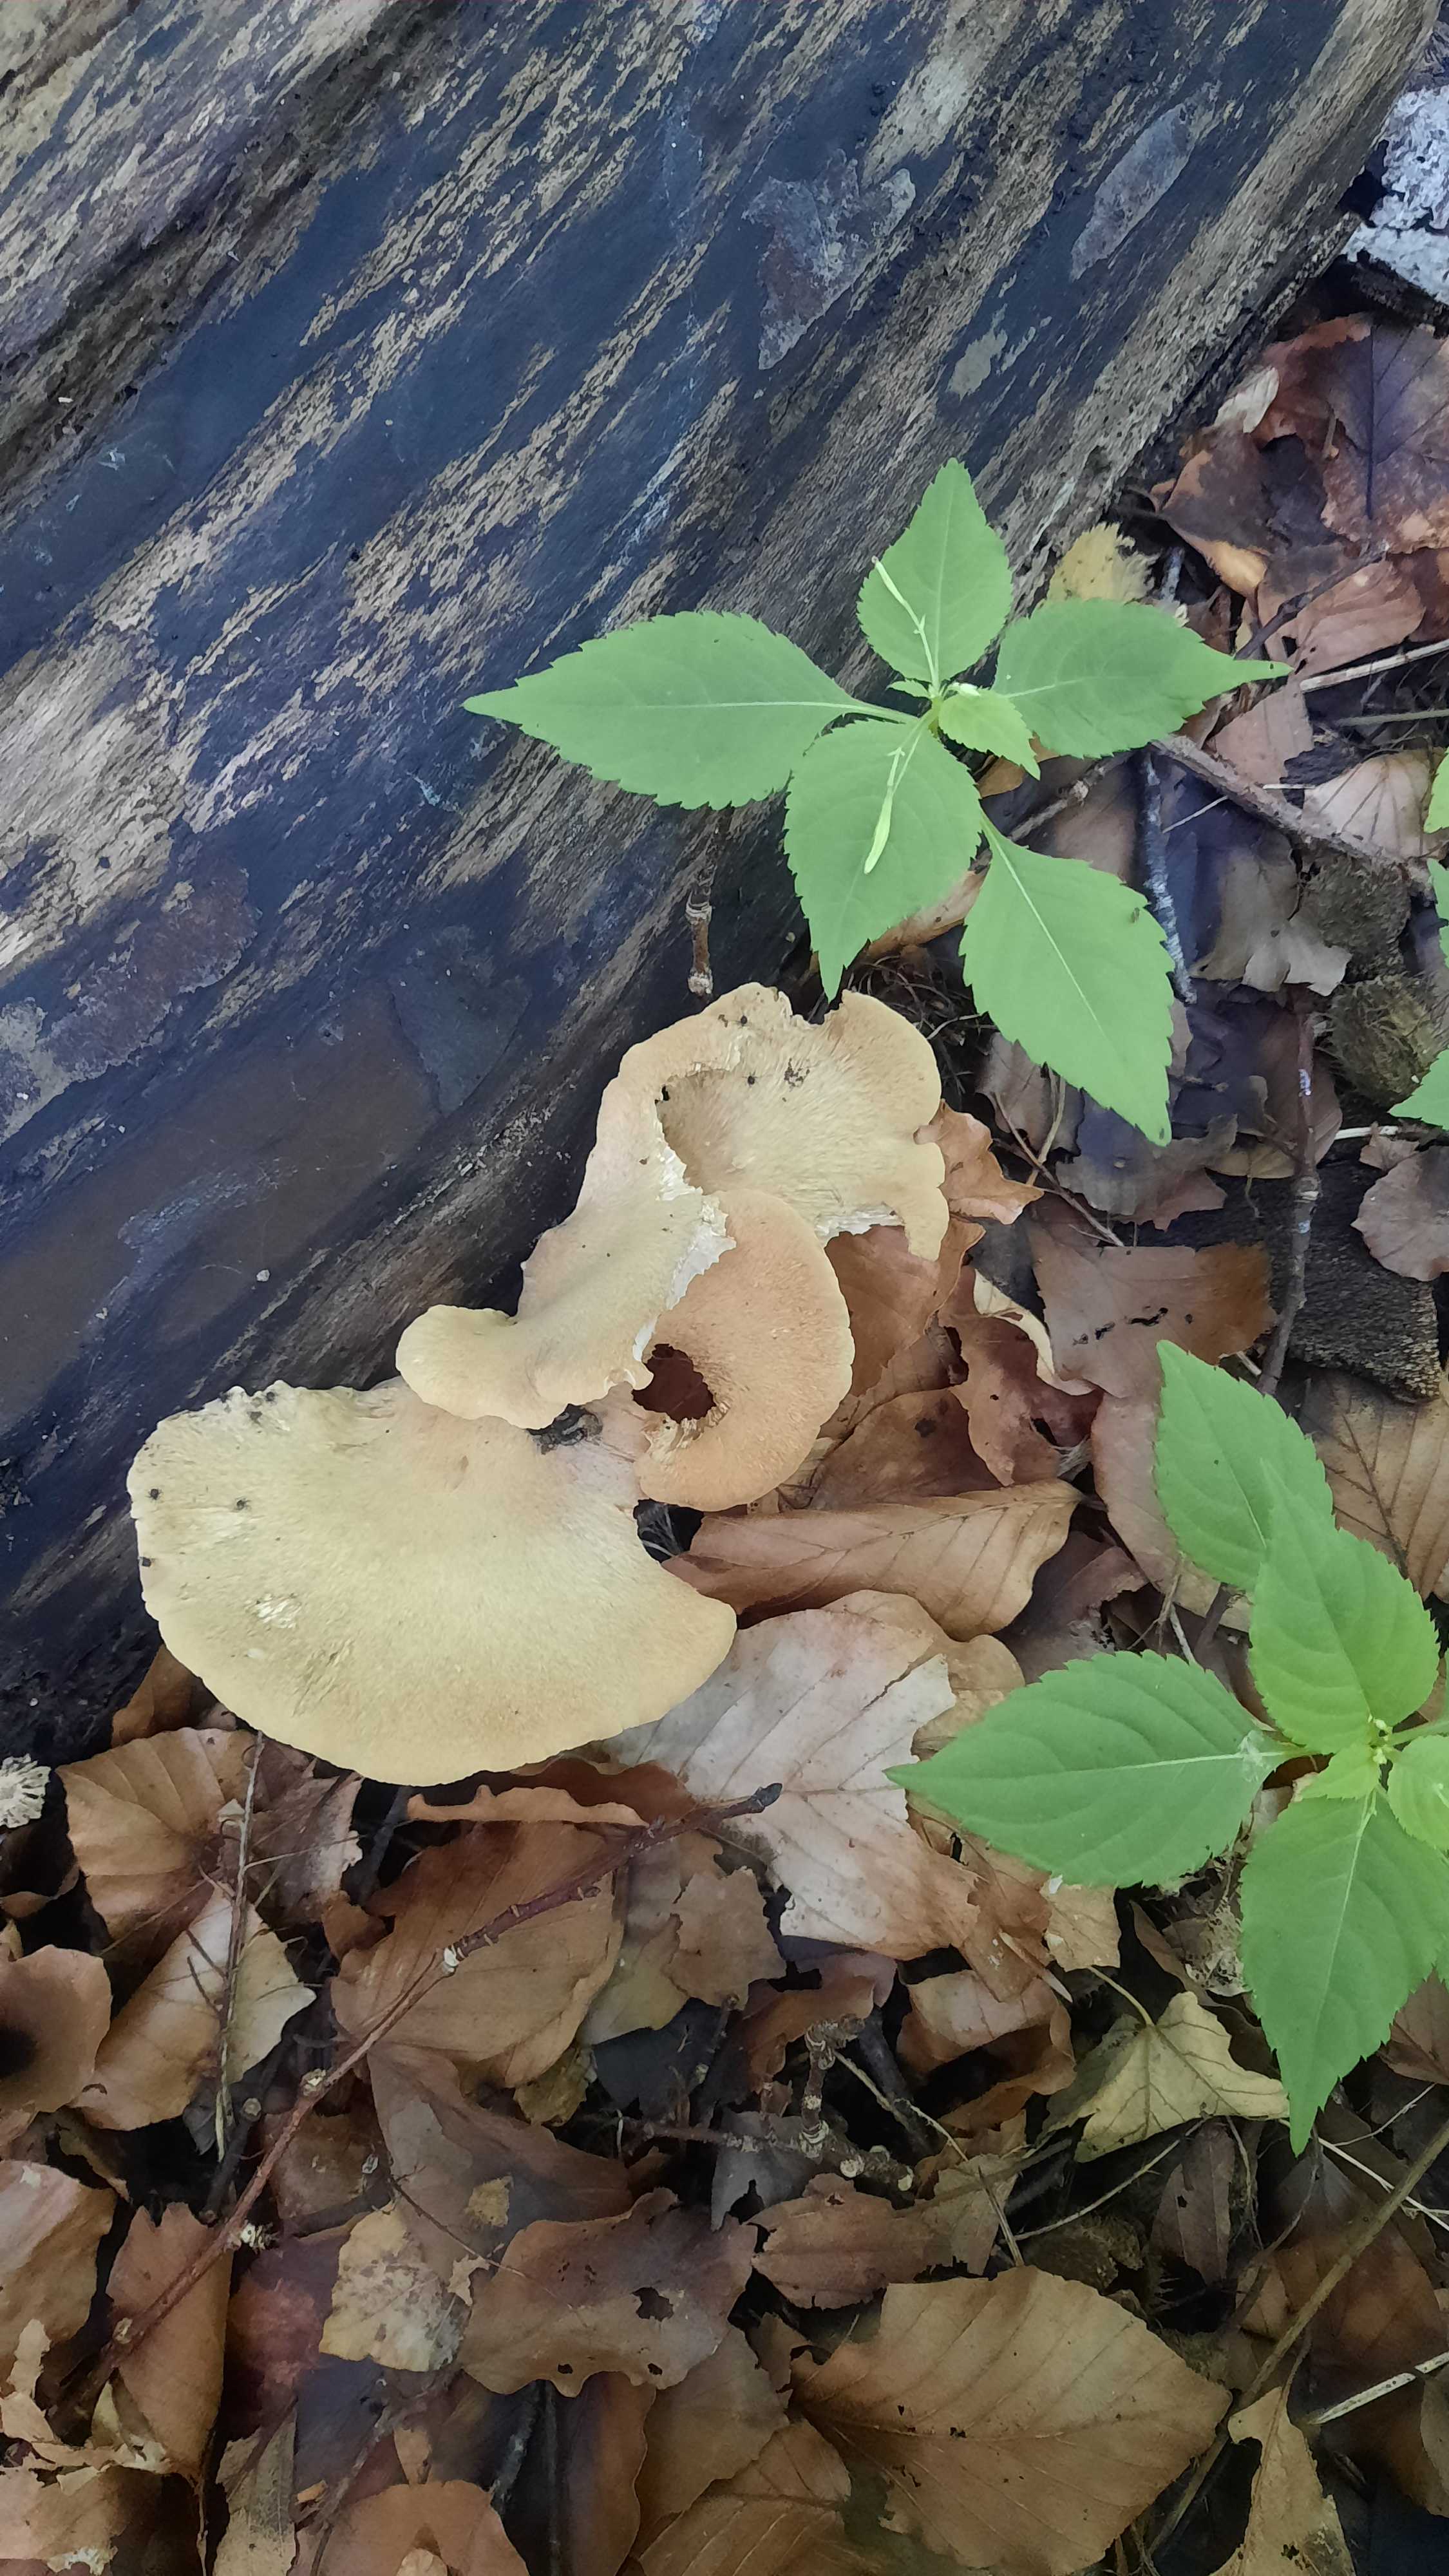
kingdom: Fungi
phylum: Basidiomycota
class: Agaricomycetes
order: Polyporales
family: Polyporaceae
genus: Cerioporus
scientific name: Cerioporus varius
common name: foranderlig stilkporesvamp
